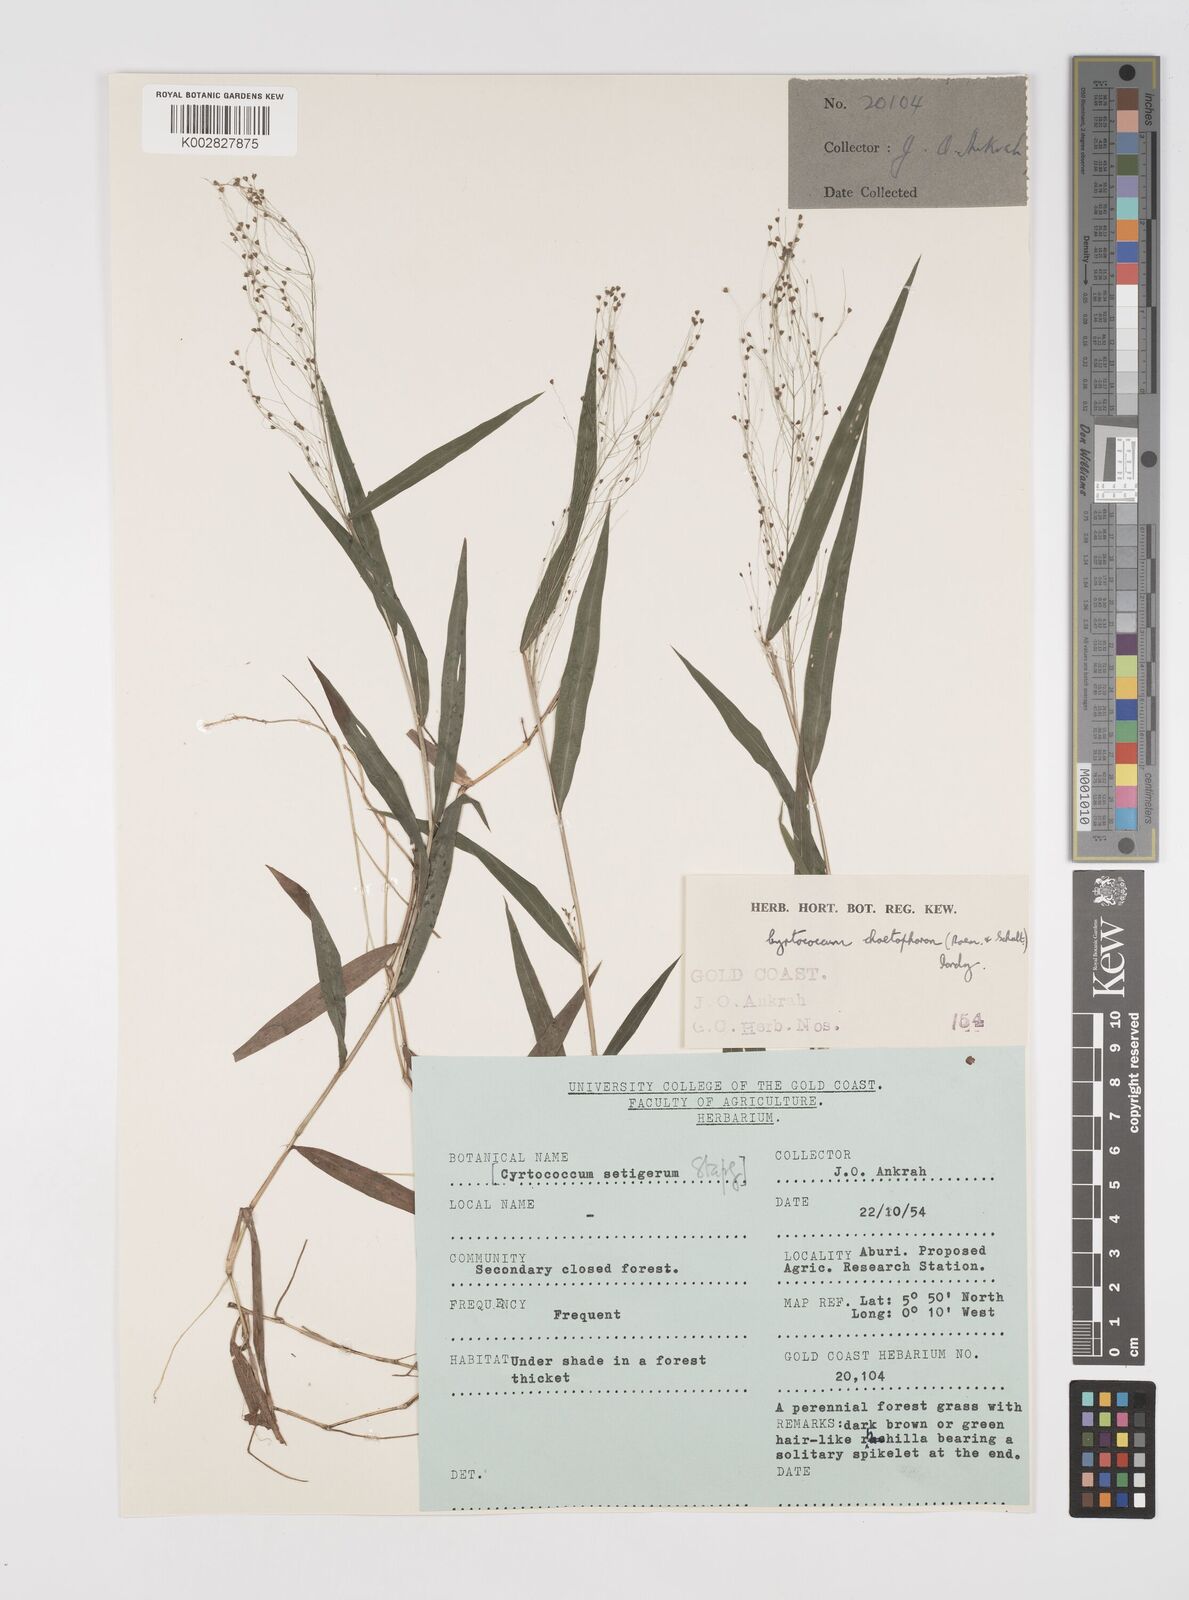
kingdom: Plantae
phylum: Tracheophyta
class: Liliopsida
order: Poales
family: Poaceae
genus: Cyrtococcum
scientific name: Cyrtococcum chaetophoron
